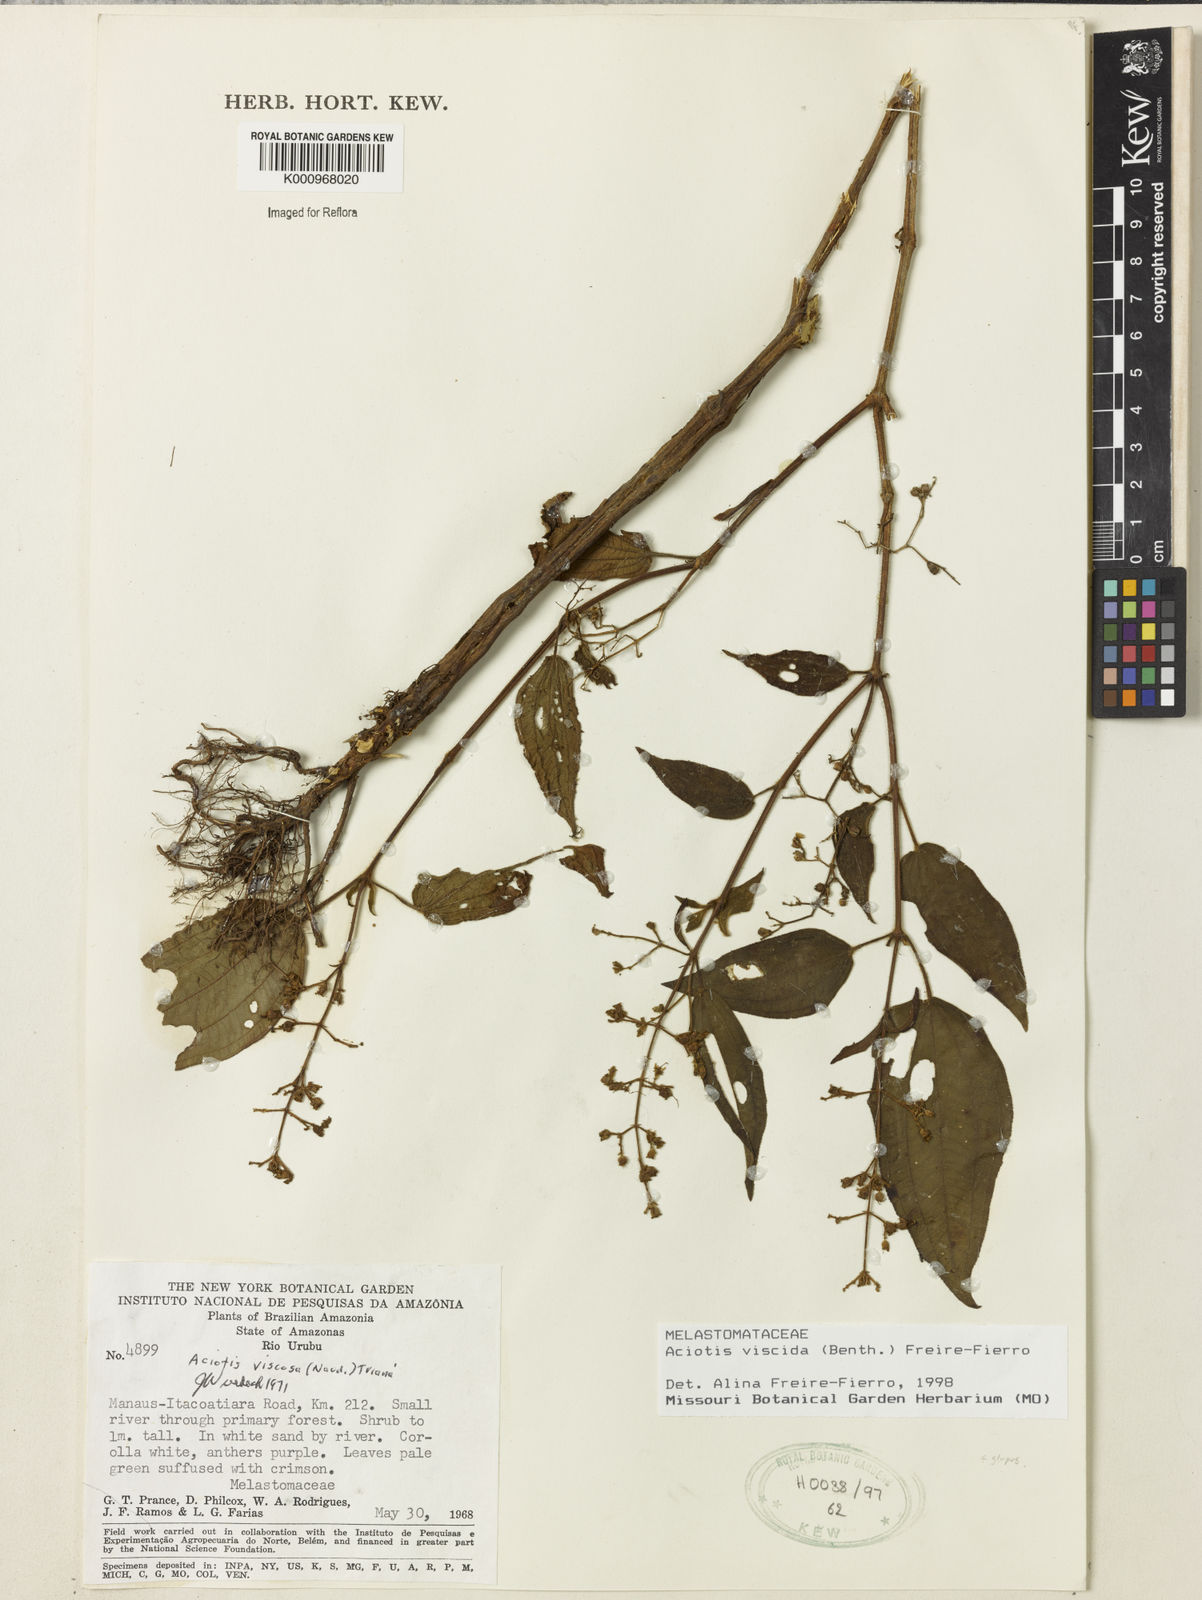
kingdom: Plantae
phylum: Tracheophyta
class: Magnoliopsida
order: Myrtales
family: Melastomataceae
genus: Aciotis
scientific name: Aciotis viscida
